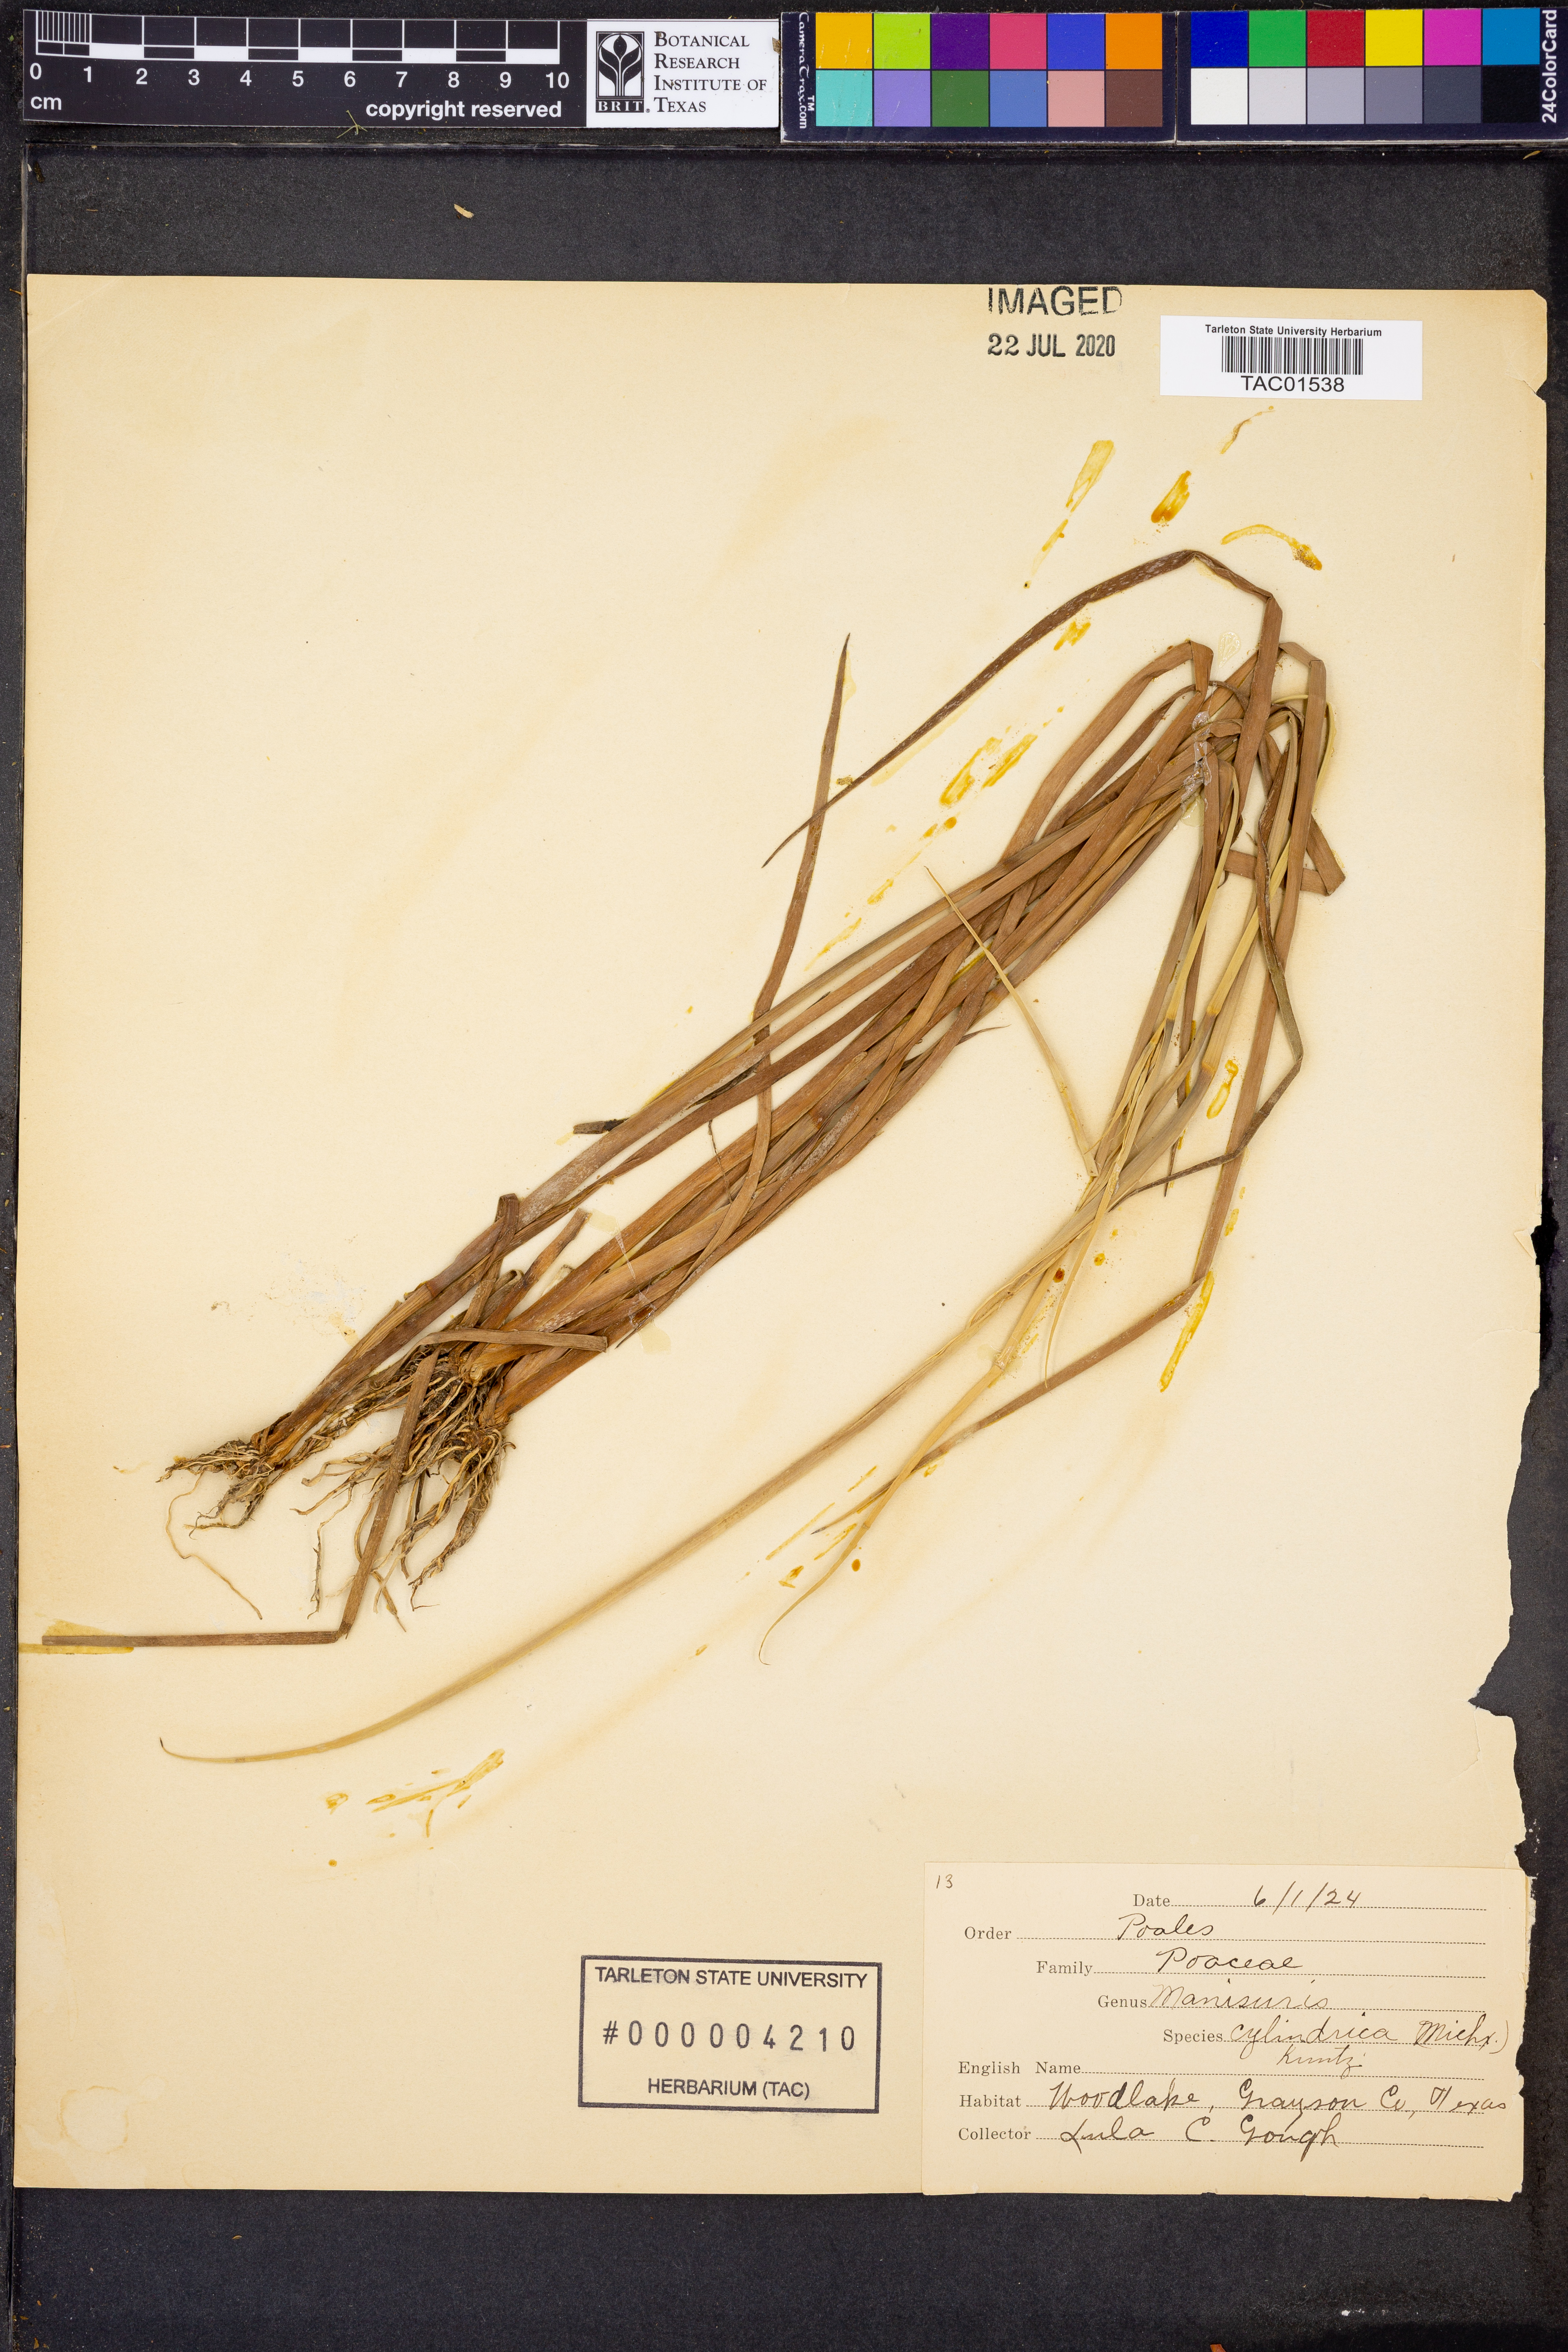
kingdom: Plantae
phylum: Tracheophyta
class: Liliopsida
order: Poales
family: Poaceae
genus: Rottboellia
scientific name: Rottboellia campestris
